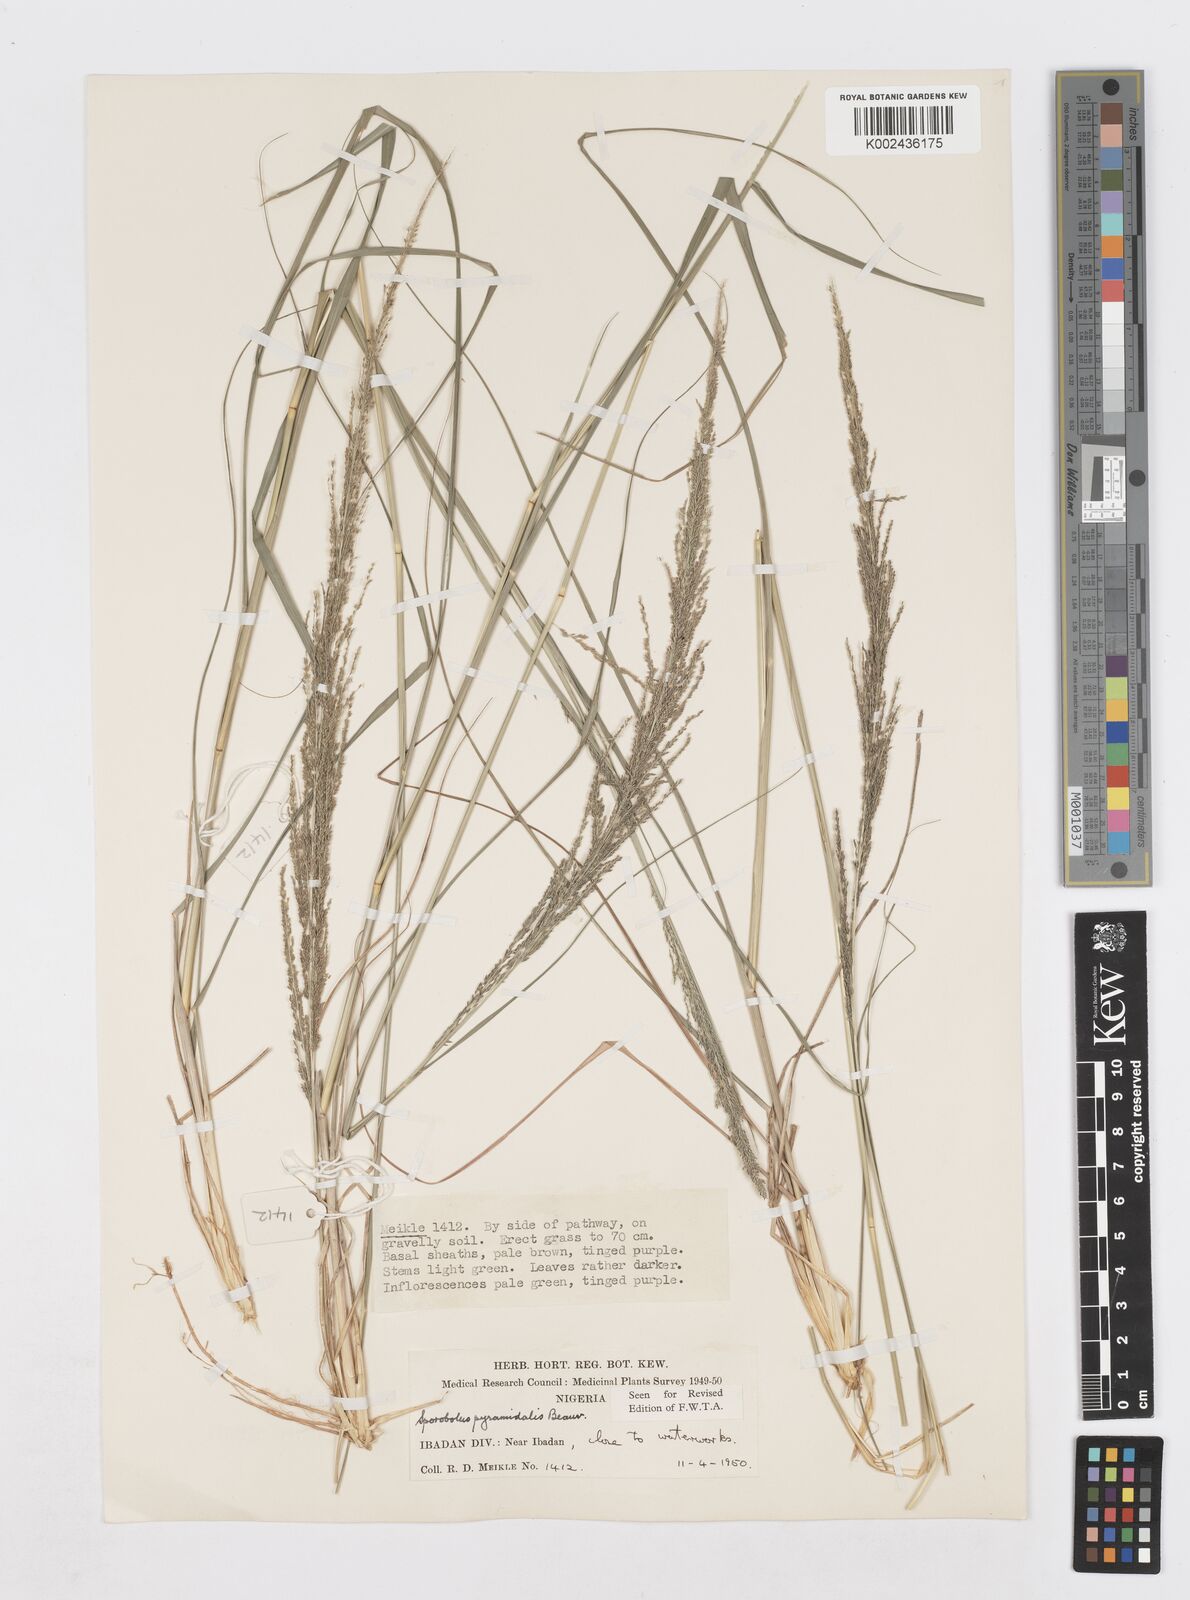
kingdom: Plantae
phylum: Tracheophyta
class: Liliopsida
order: Poales
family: Poaceae
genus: Sporobolus
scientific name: Sporobolus pyramidalis
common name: West indian dropseed
